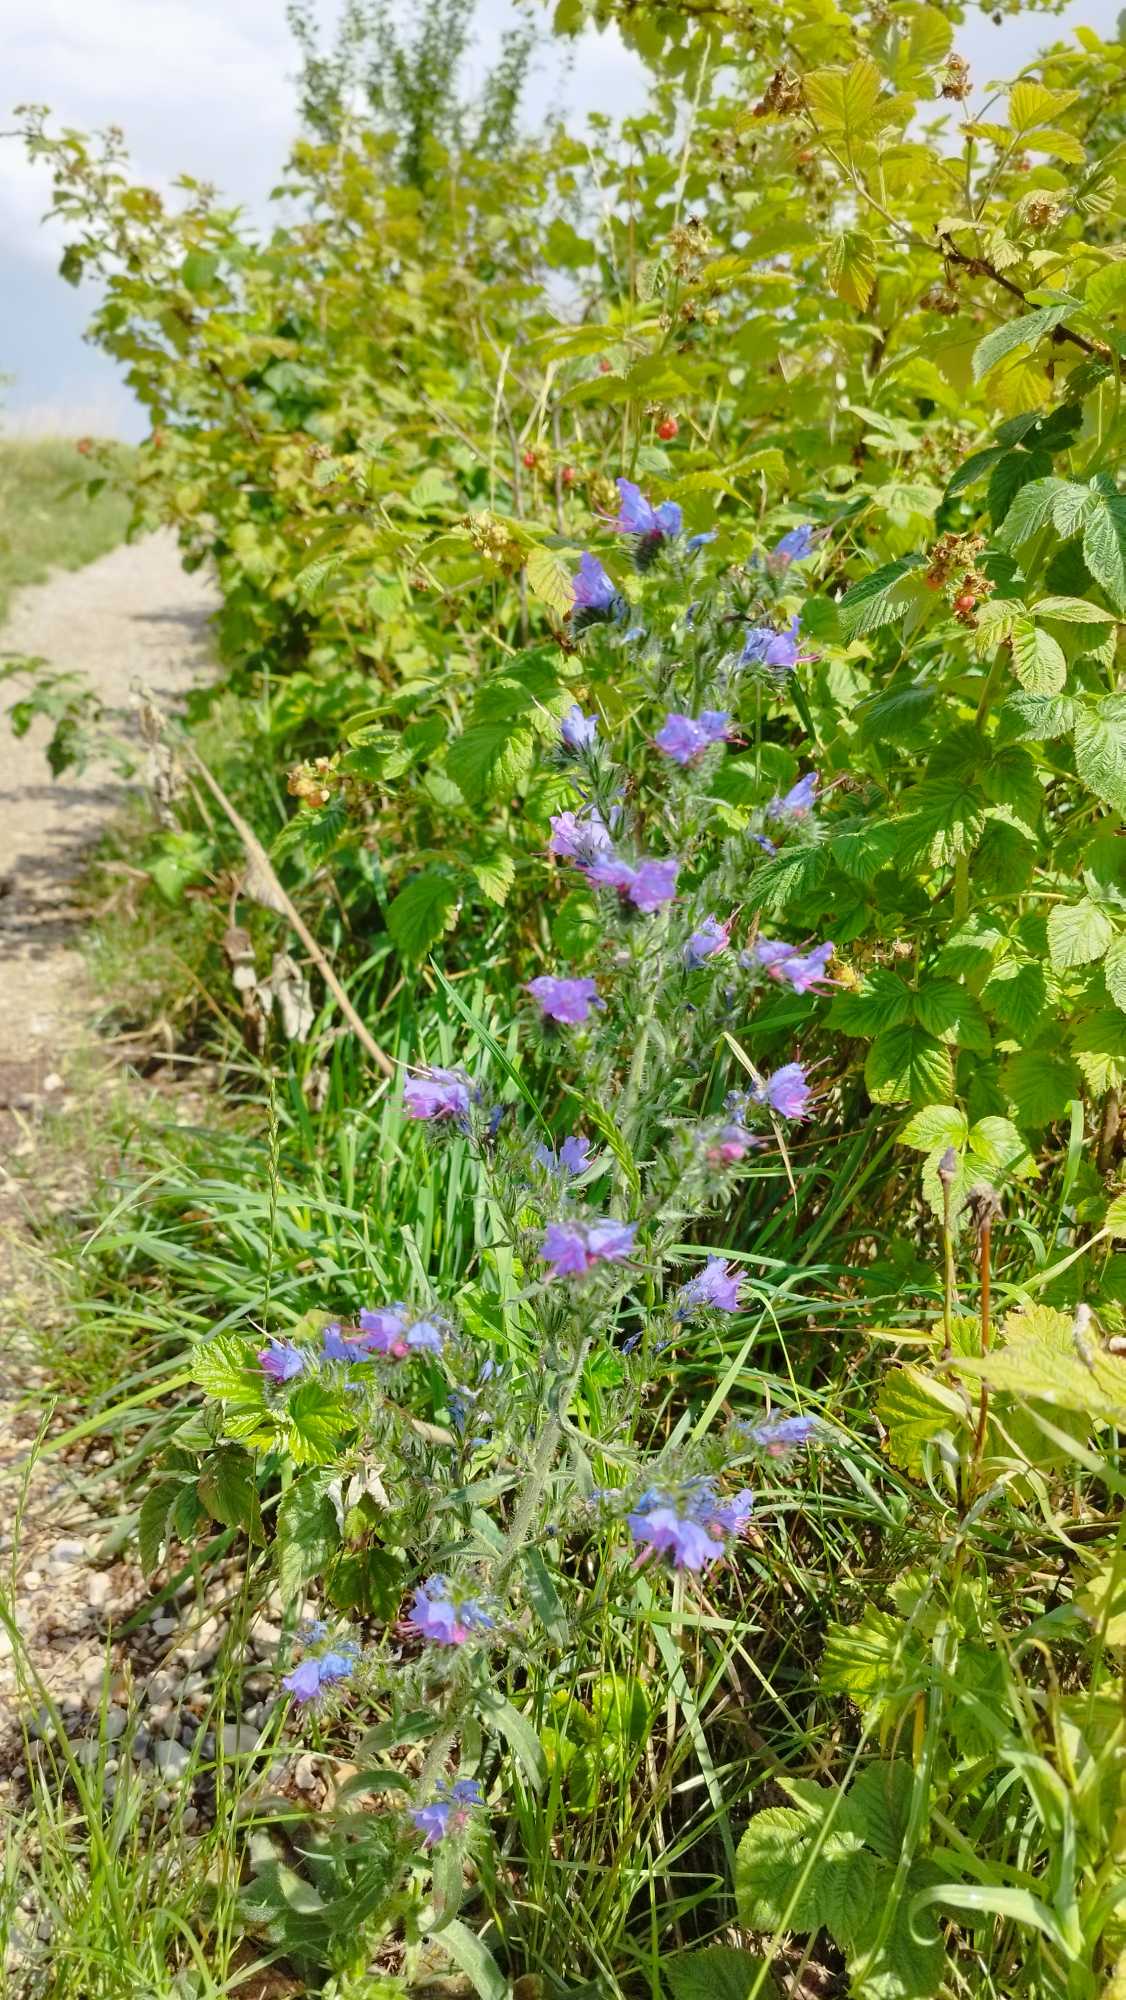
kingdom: Plantae
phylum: Tracheophyta
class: Magnoliopsida
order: Boraginales
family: Boraginaceae
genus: Echium
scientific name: Echium vulgare
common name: Slangehoved
